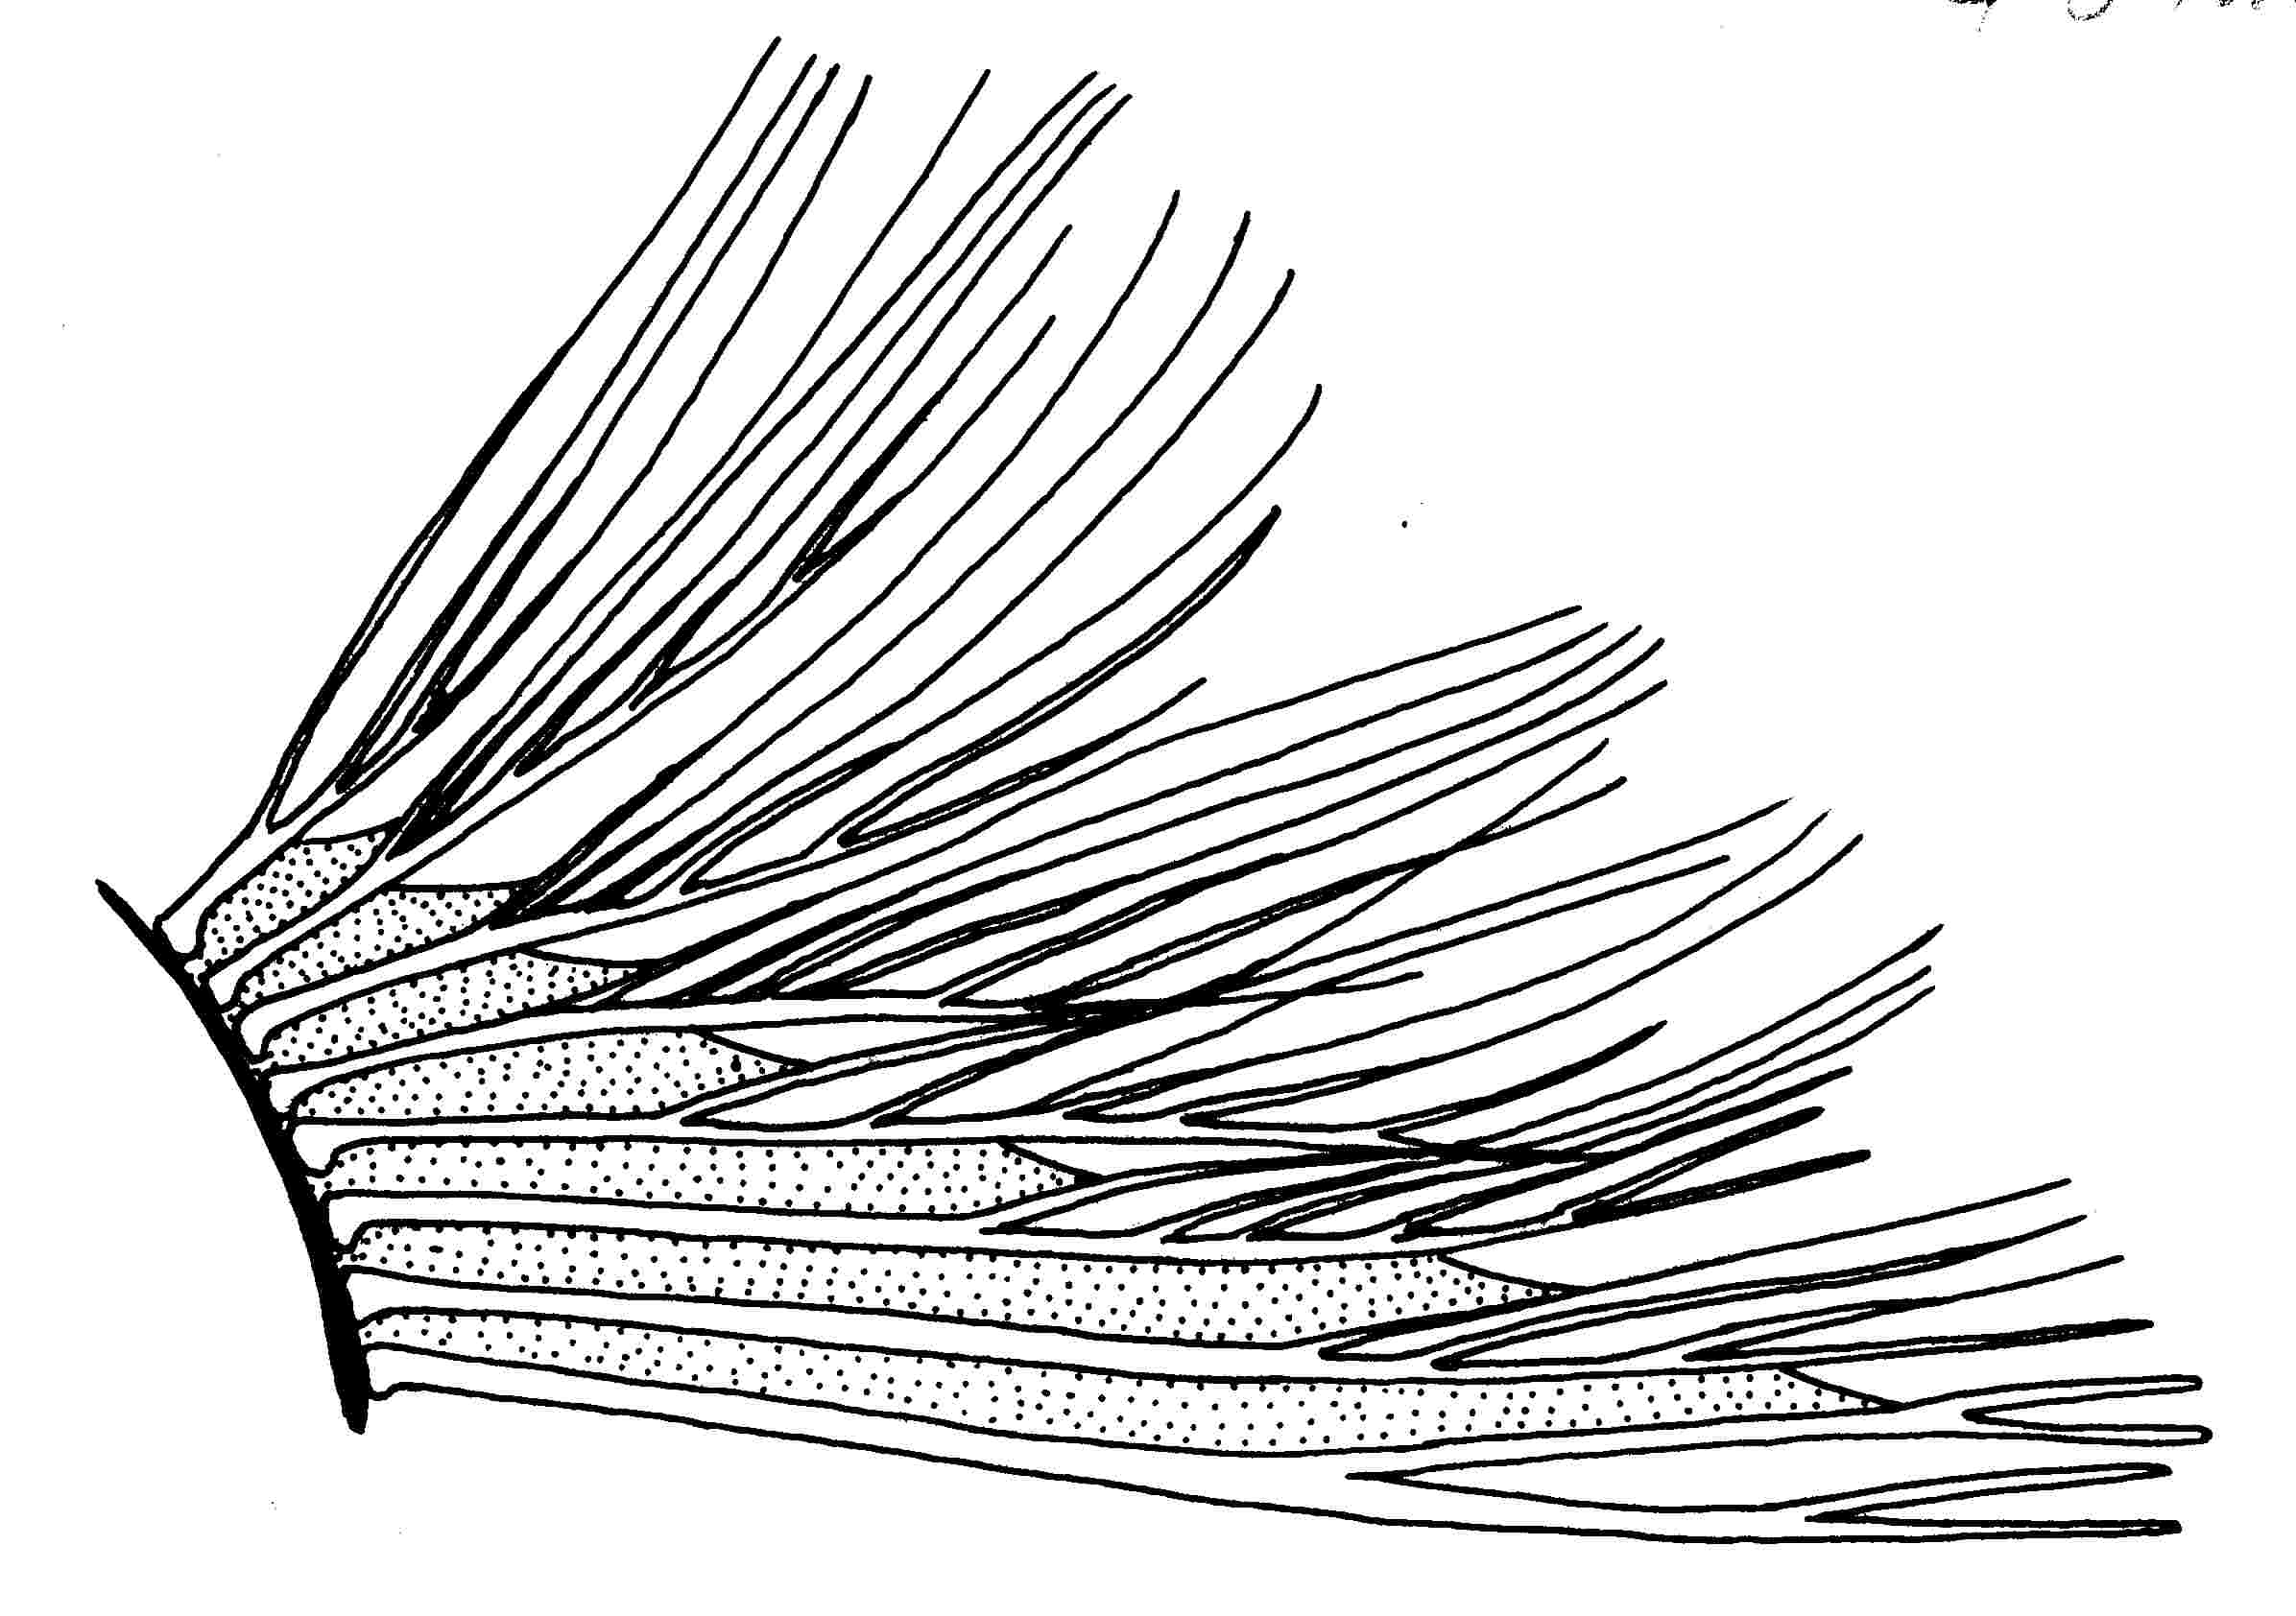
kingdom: Animalia
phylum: Chordata
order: Perciformes
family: Gobiidae
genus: Bathygobius
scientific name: Bathygobius niger
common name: Black minigoby
